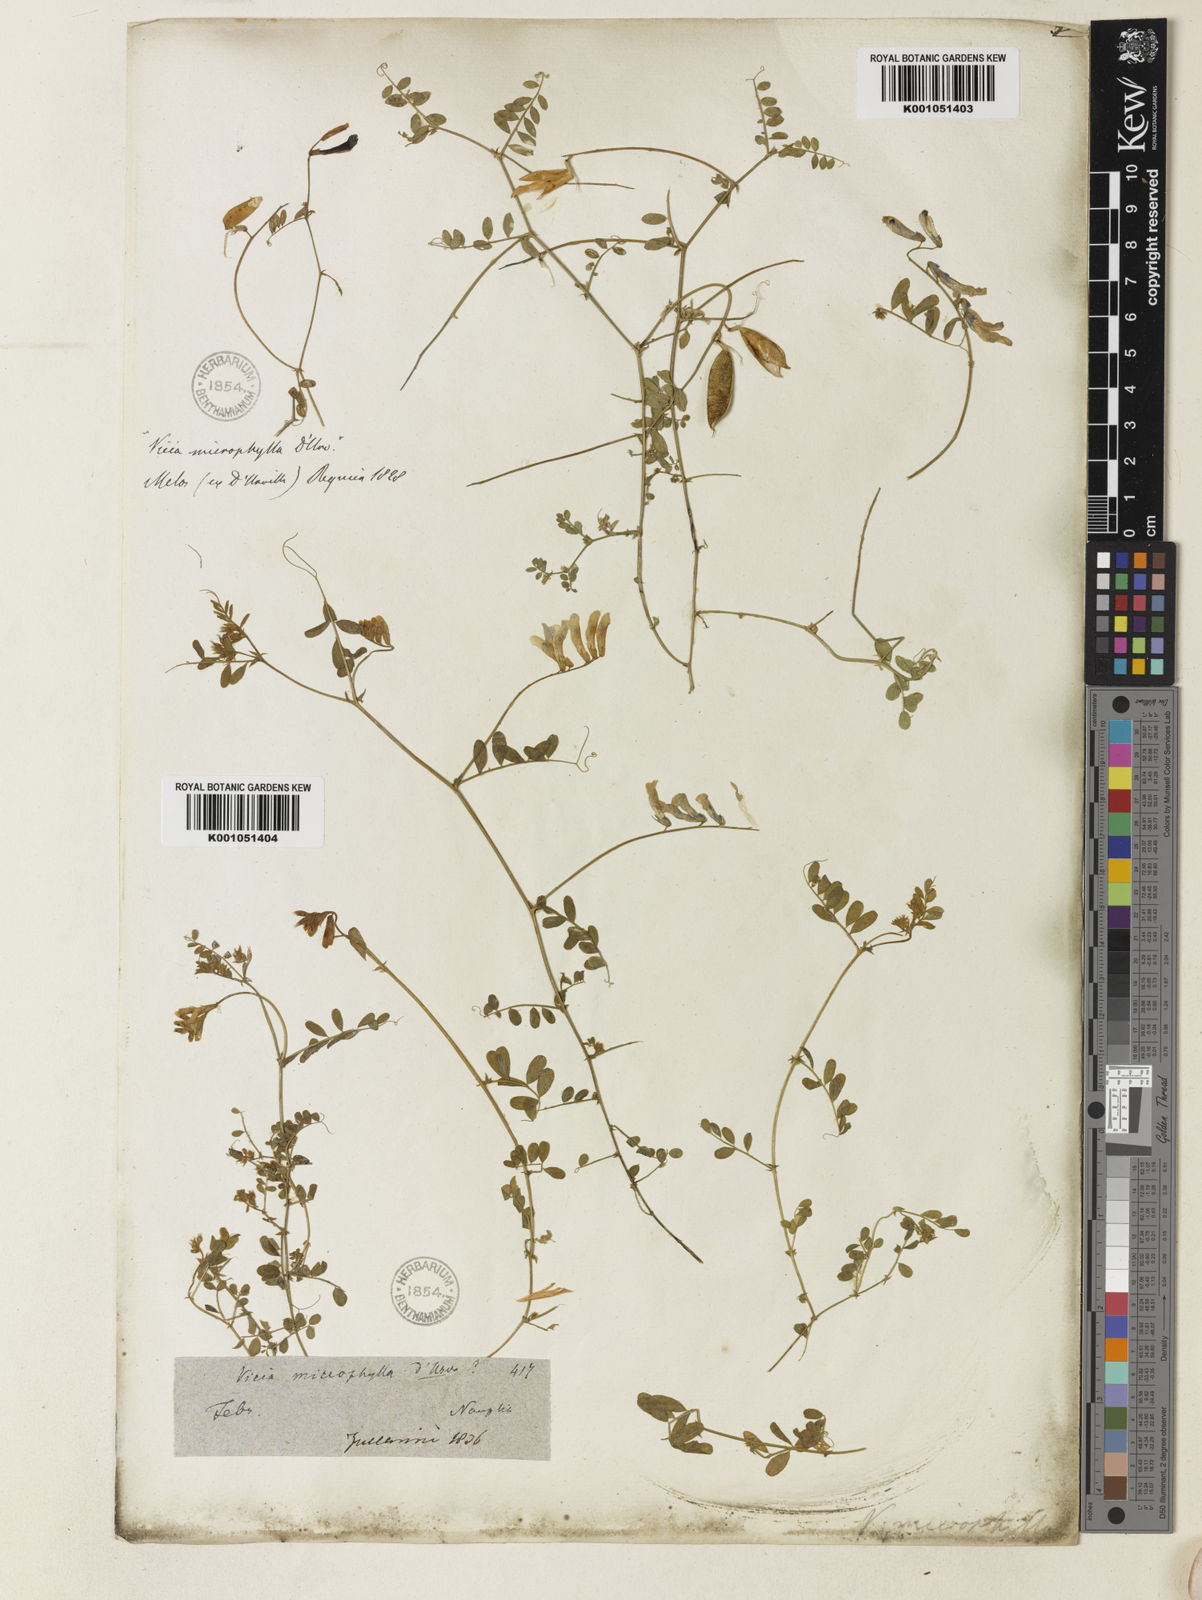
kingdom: Plantae
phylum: Tracheophyta
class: Magnoliopsida
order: Fabales
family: Fabaceae
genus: Vicia
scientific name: Vicia villosa
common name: Fodder vetch
